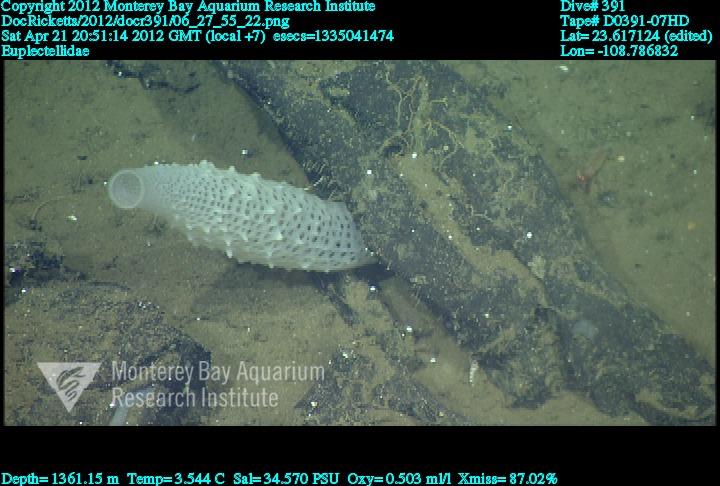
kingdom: Animalia
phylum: Porifera
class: Hexactinellida
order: Lyssacinosida
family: Euplectellidae
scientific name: Euplectellidae
